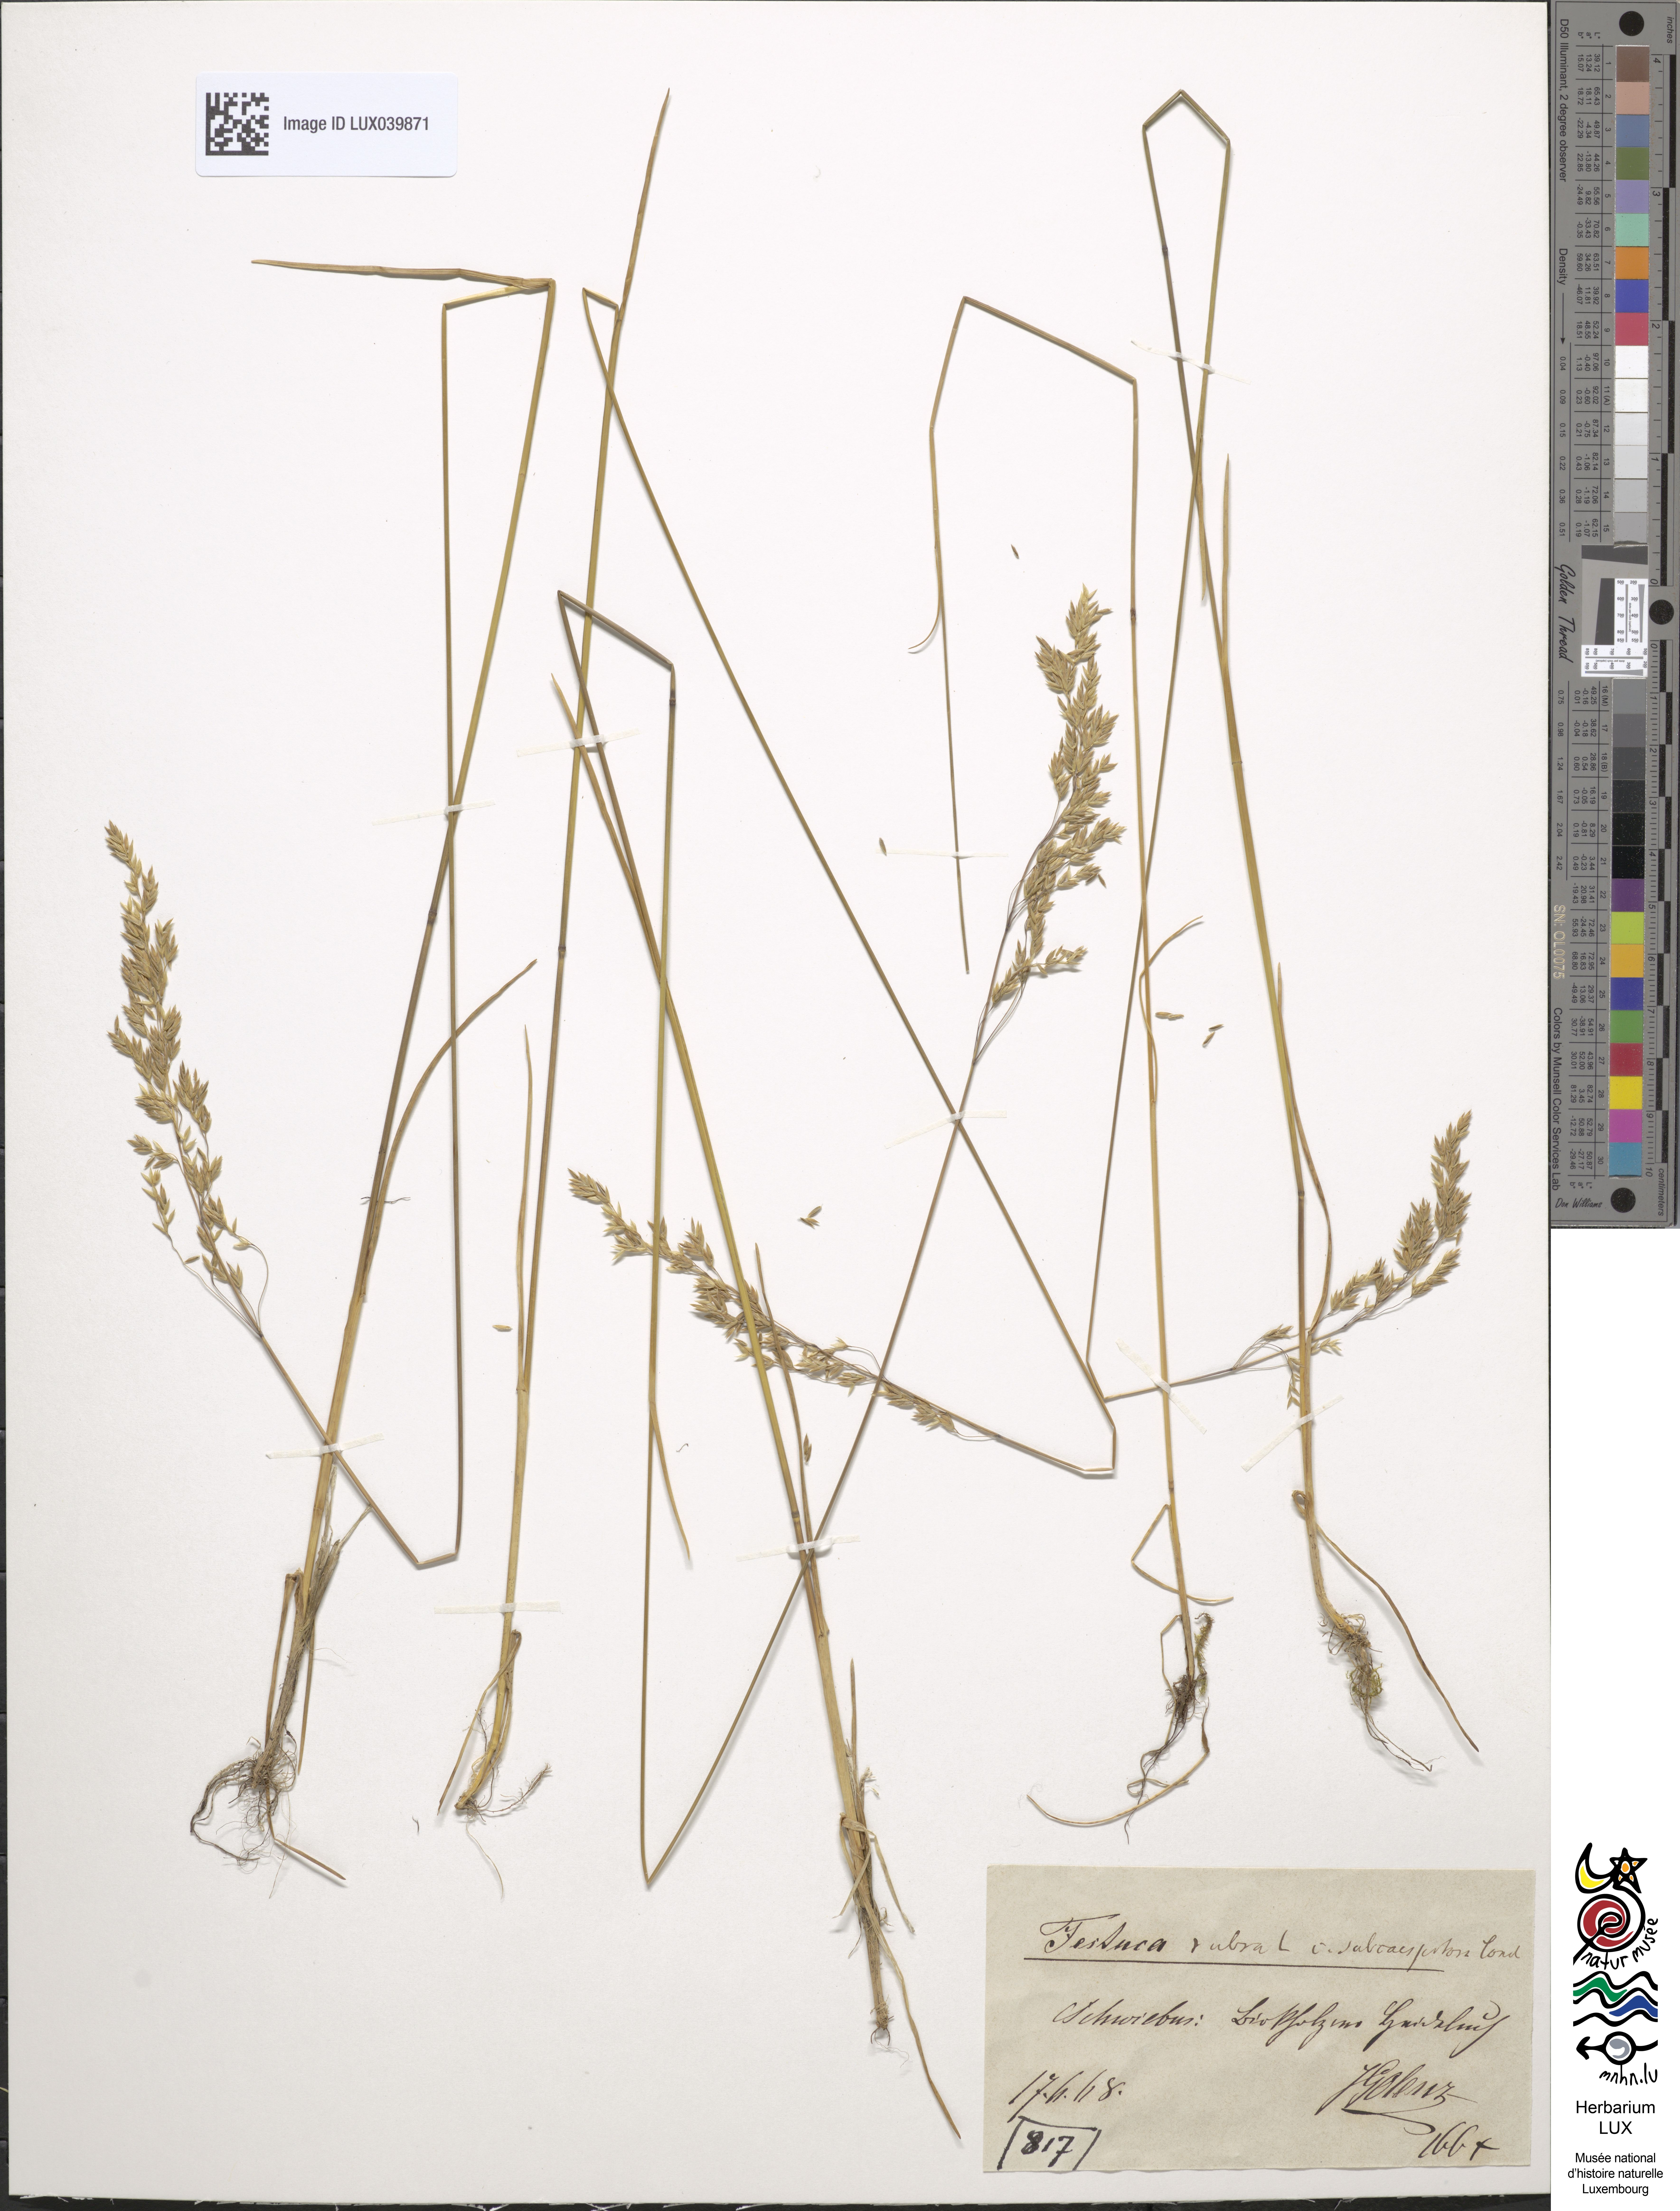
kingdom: Plantae
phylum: Tracheophyta
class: Liliopsida
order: Poales
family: Poaceae
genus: Festuca
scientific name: Festuca rubra
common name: Red fescue
